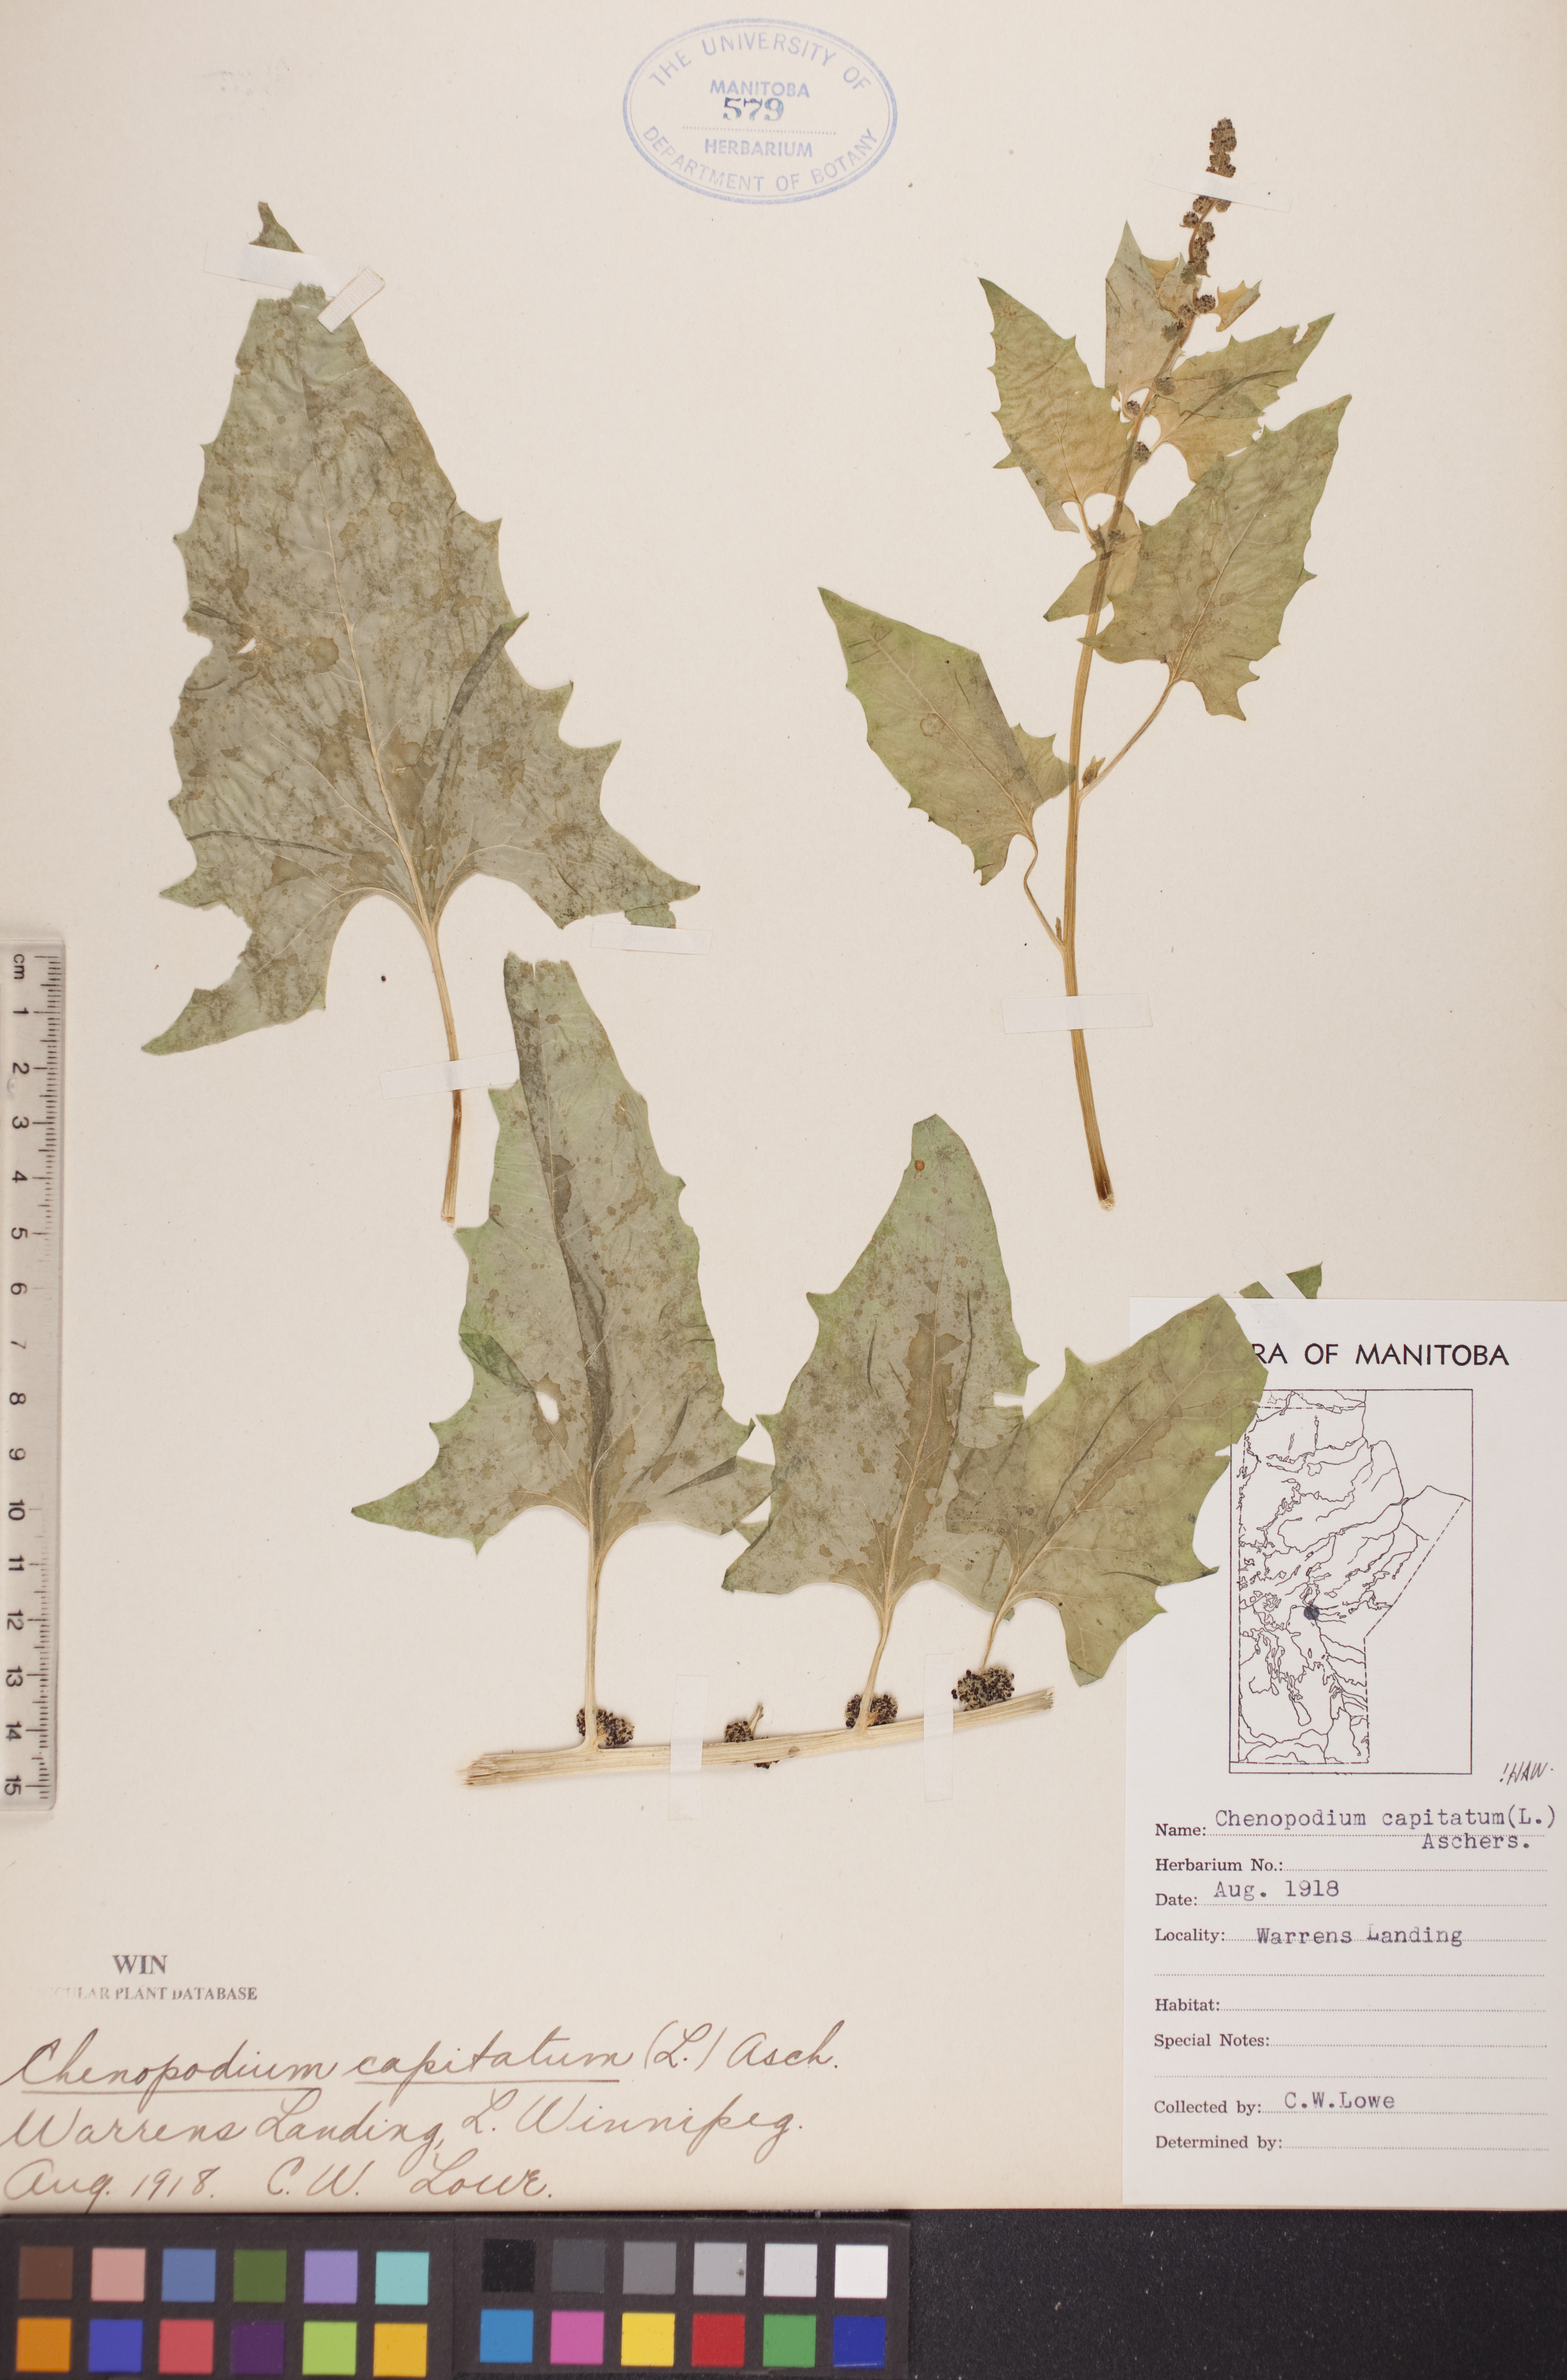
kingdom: Plantae
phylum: Tracheophyta
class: Magnoliopsida
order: Caryophyllales
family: Amaranthaceae
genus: Blitum
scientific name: Blitum capitatum
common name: Strawberry-blight
